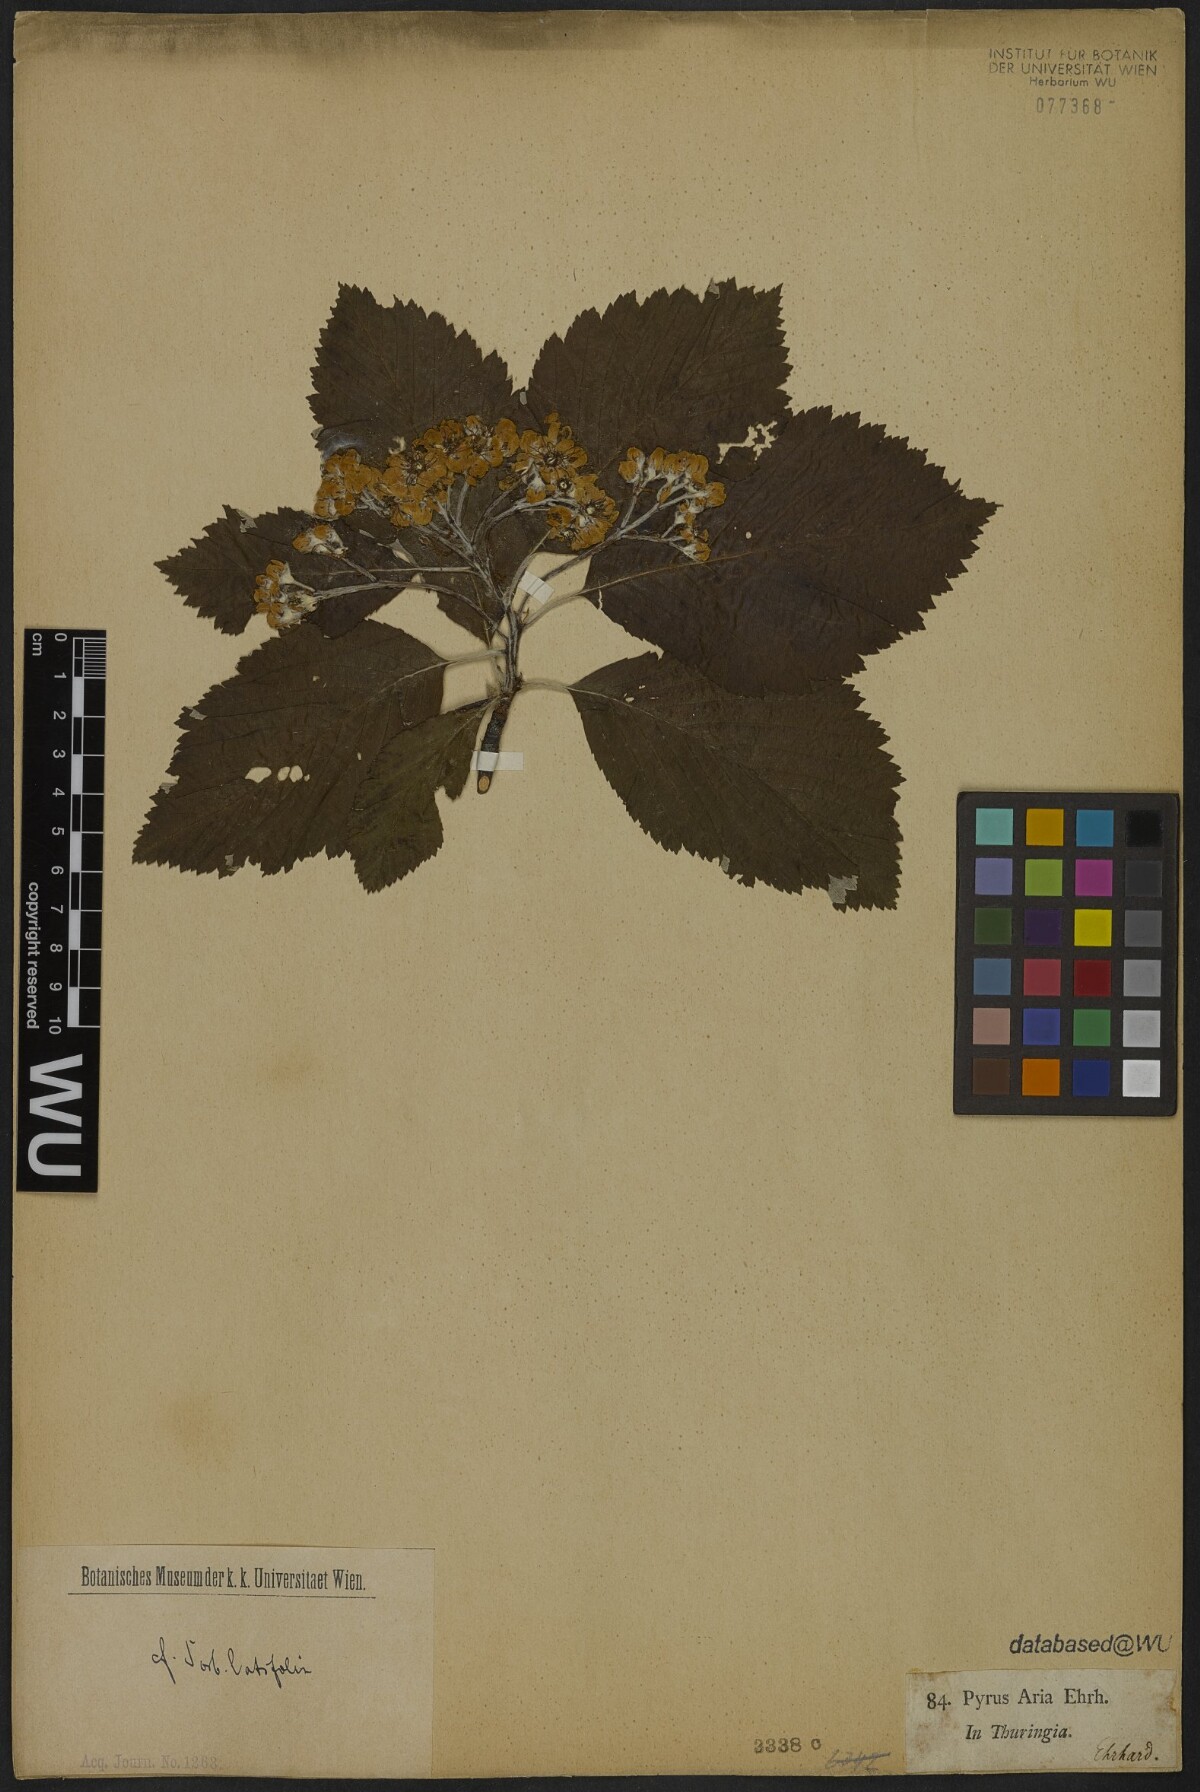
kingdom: Plantae
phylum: Tracheophyta
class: Magnoliopsida
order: Rosales
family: Rosaceae
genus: Aria
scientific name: Aria edulis
